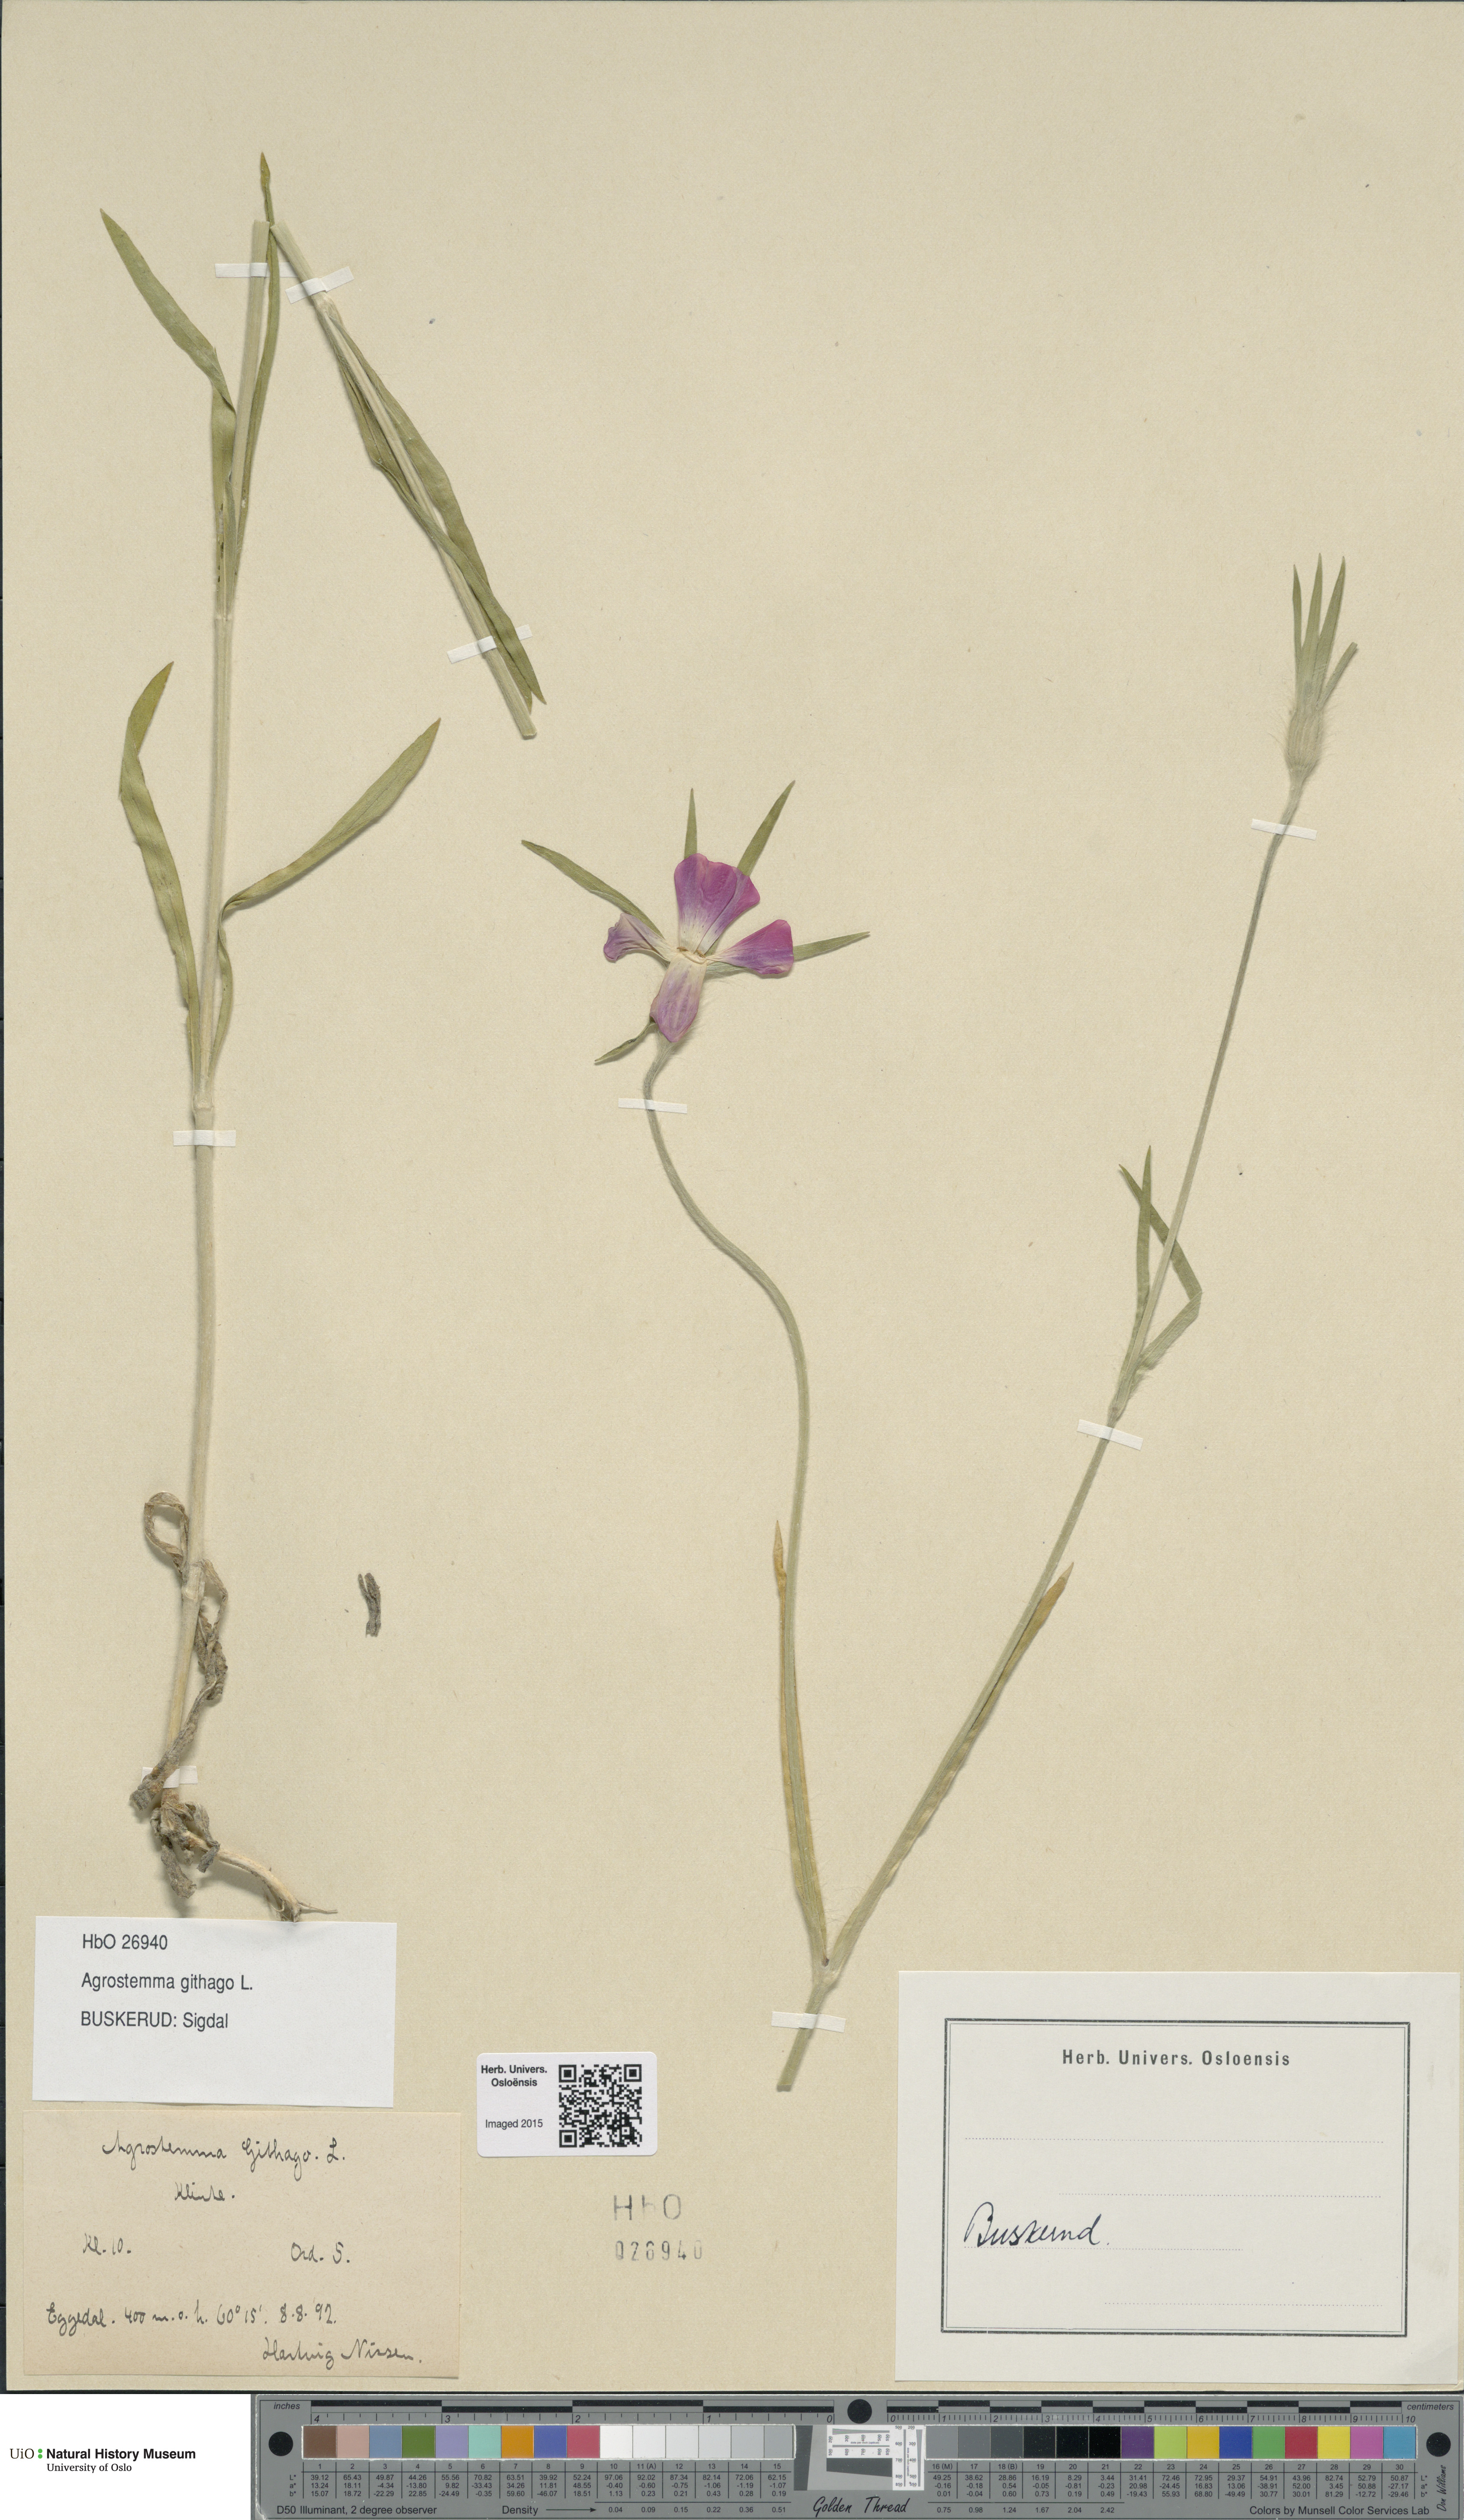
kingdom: Plantae
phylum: Tracheophyta
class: Magnoliopsida
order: Caryophyllales
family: Caryophyllaceae
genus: Agrostemma
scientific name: Agrostemma githago
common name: Common corncockle
